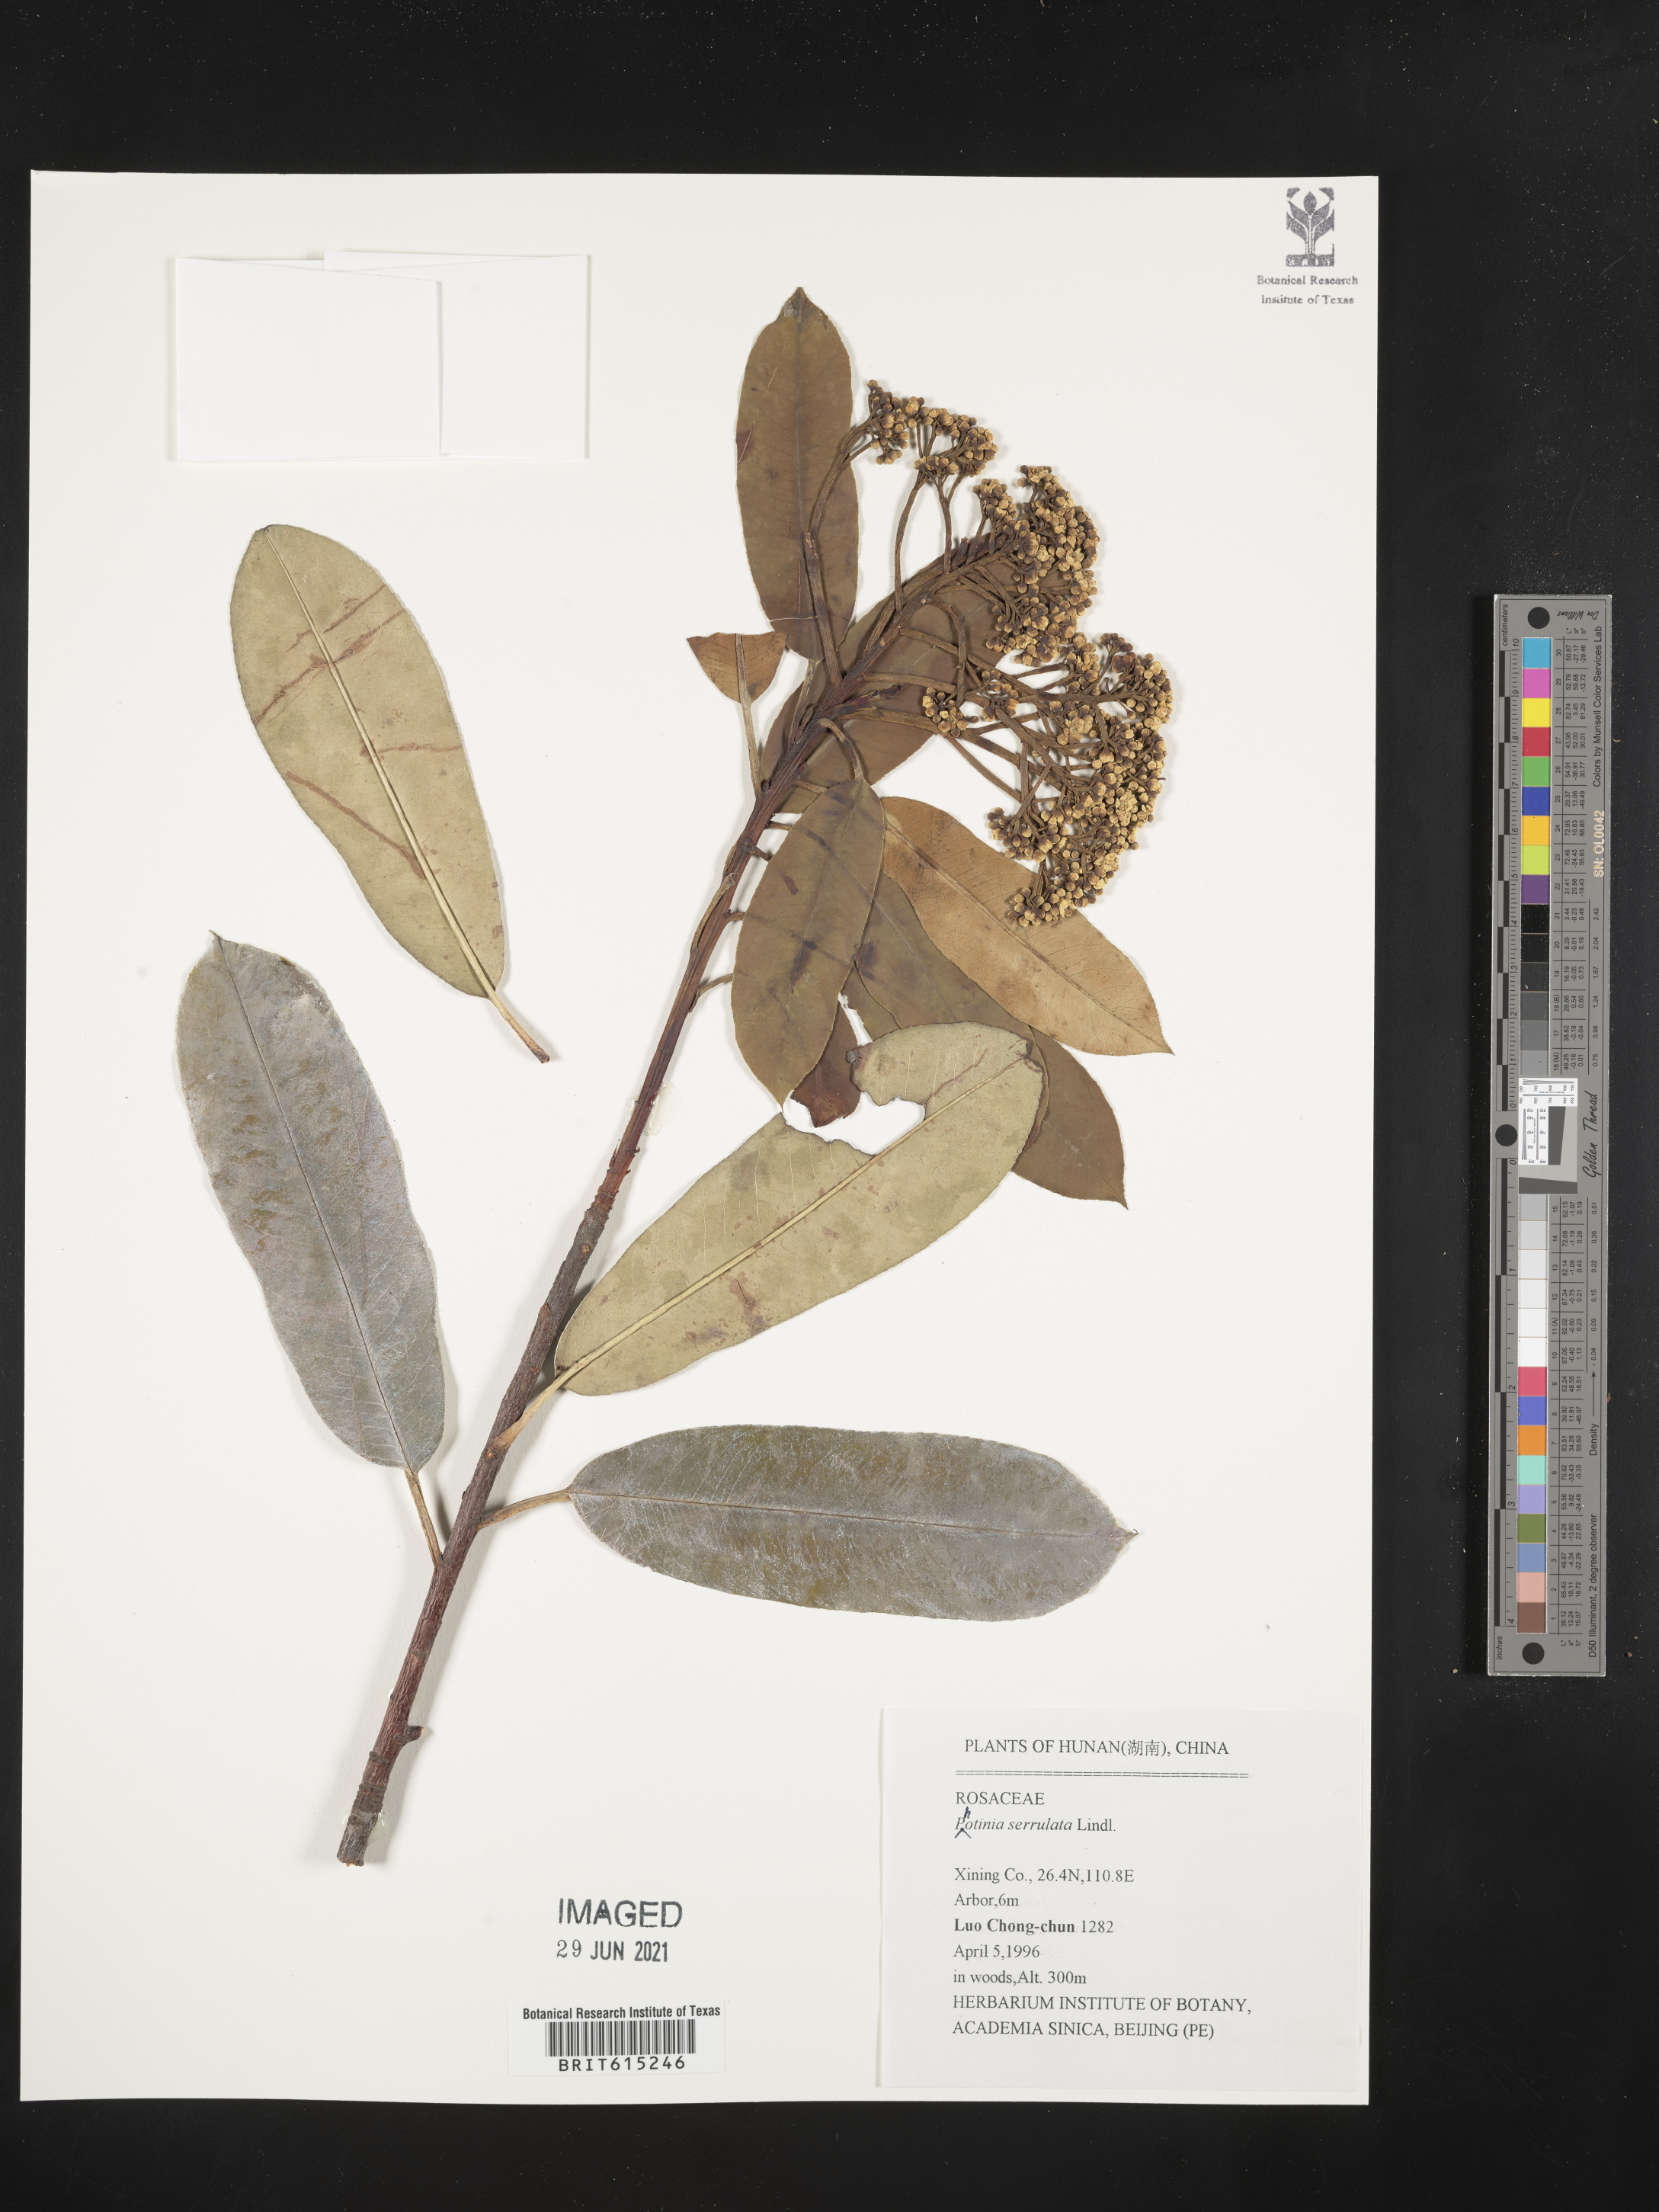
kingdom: Plantae
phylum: Tracheophyta
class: Magnoliopsida
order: Rosales
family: Rosaceae
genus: Photinia
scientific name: Photinia glabra
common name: Japanese photinia
